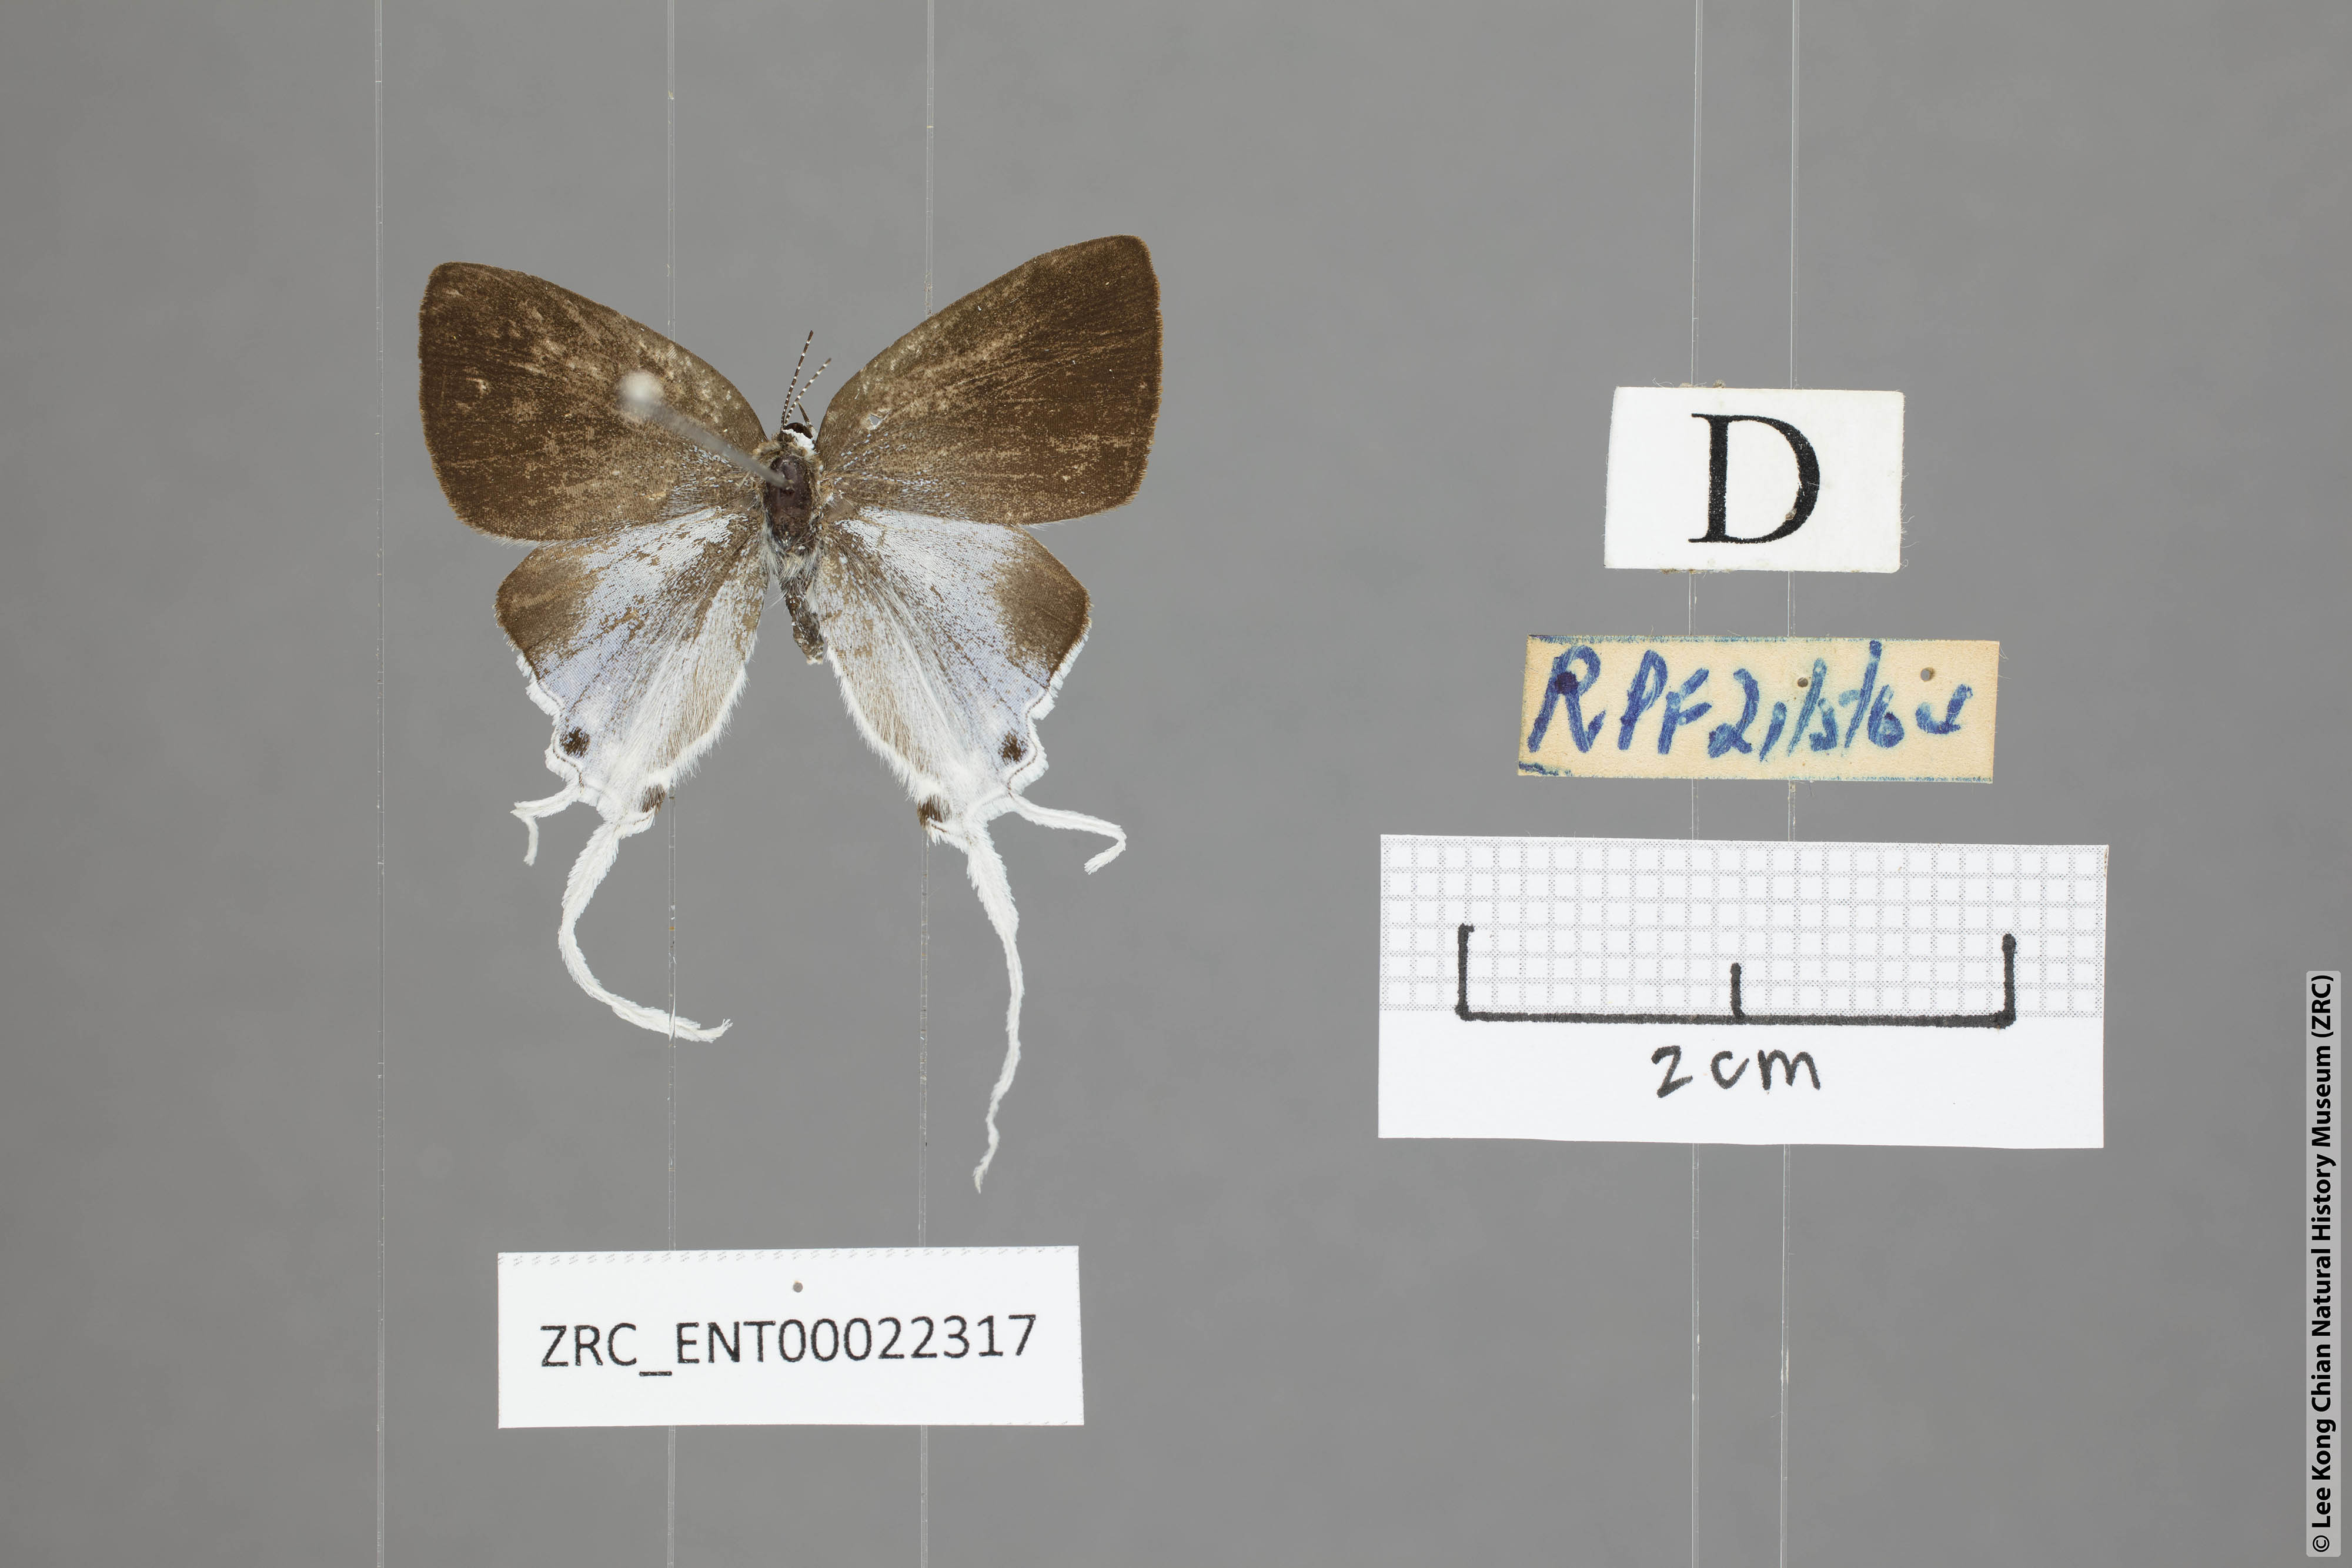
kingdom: Animalia
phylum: Arthropoda
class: Insecta
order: Lepidoptera
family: Lycaenidae
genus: Zeltus
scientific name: Zeltus amasa
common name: Fluffy tit
